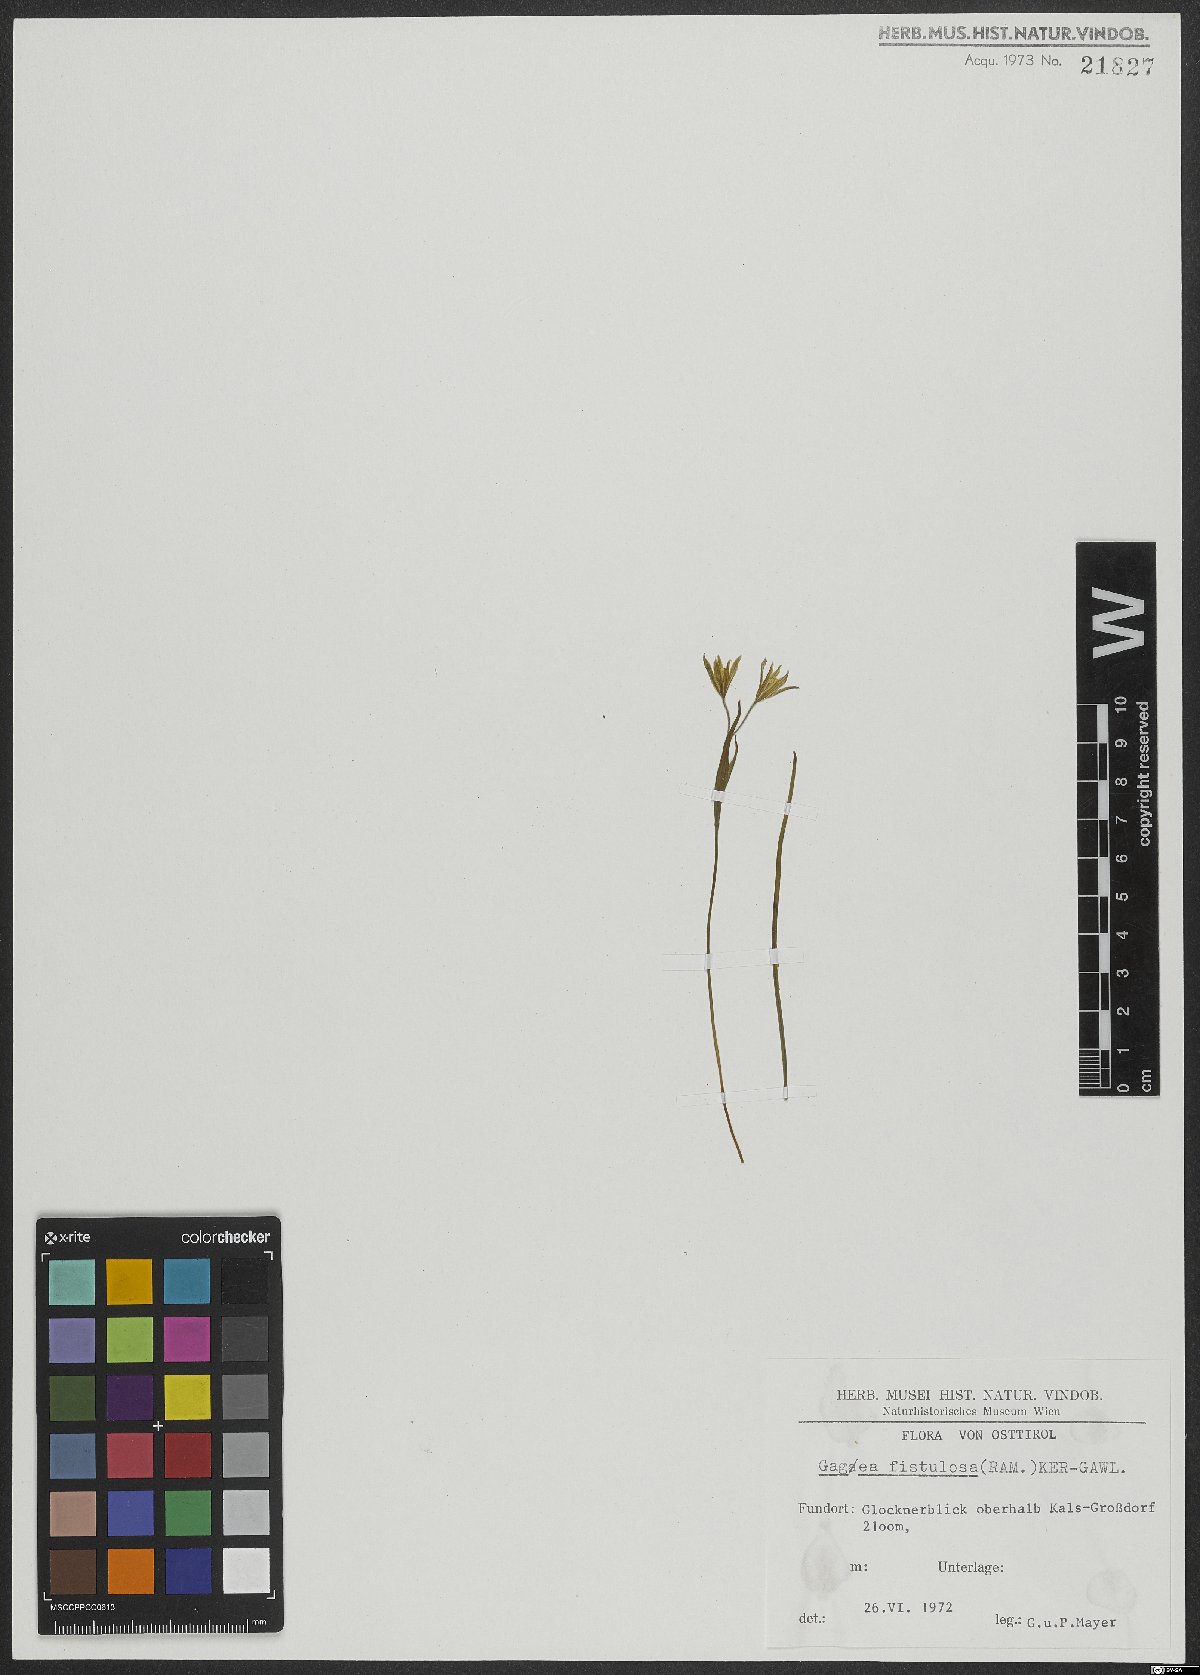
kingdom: Plantae
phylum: Tracheophyta
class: Liliopsida
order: Liliales
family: Liliaceae
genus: Gagea
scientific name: Gagea fragifera
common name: Lily
